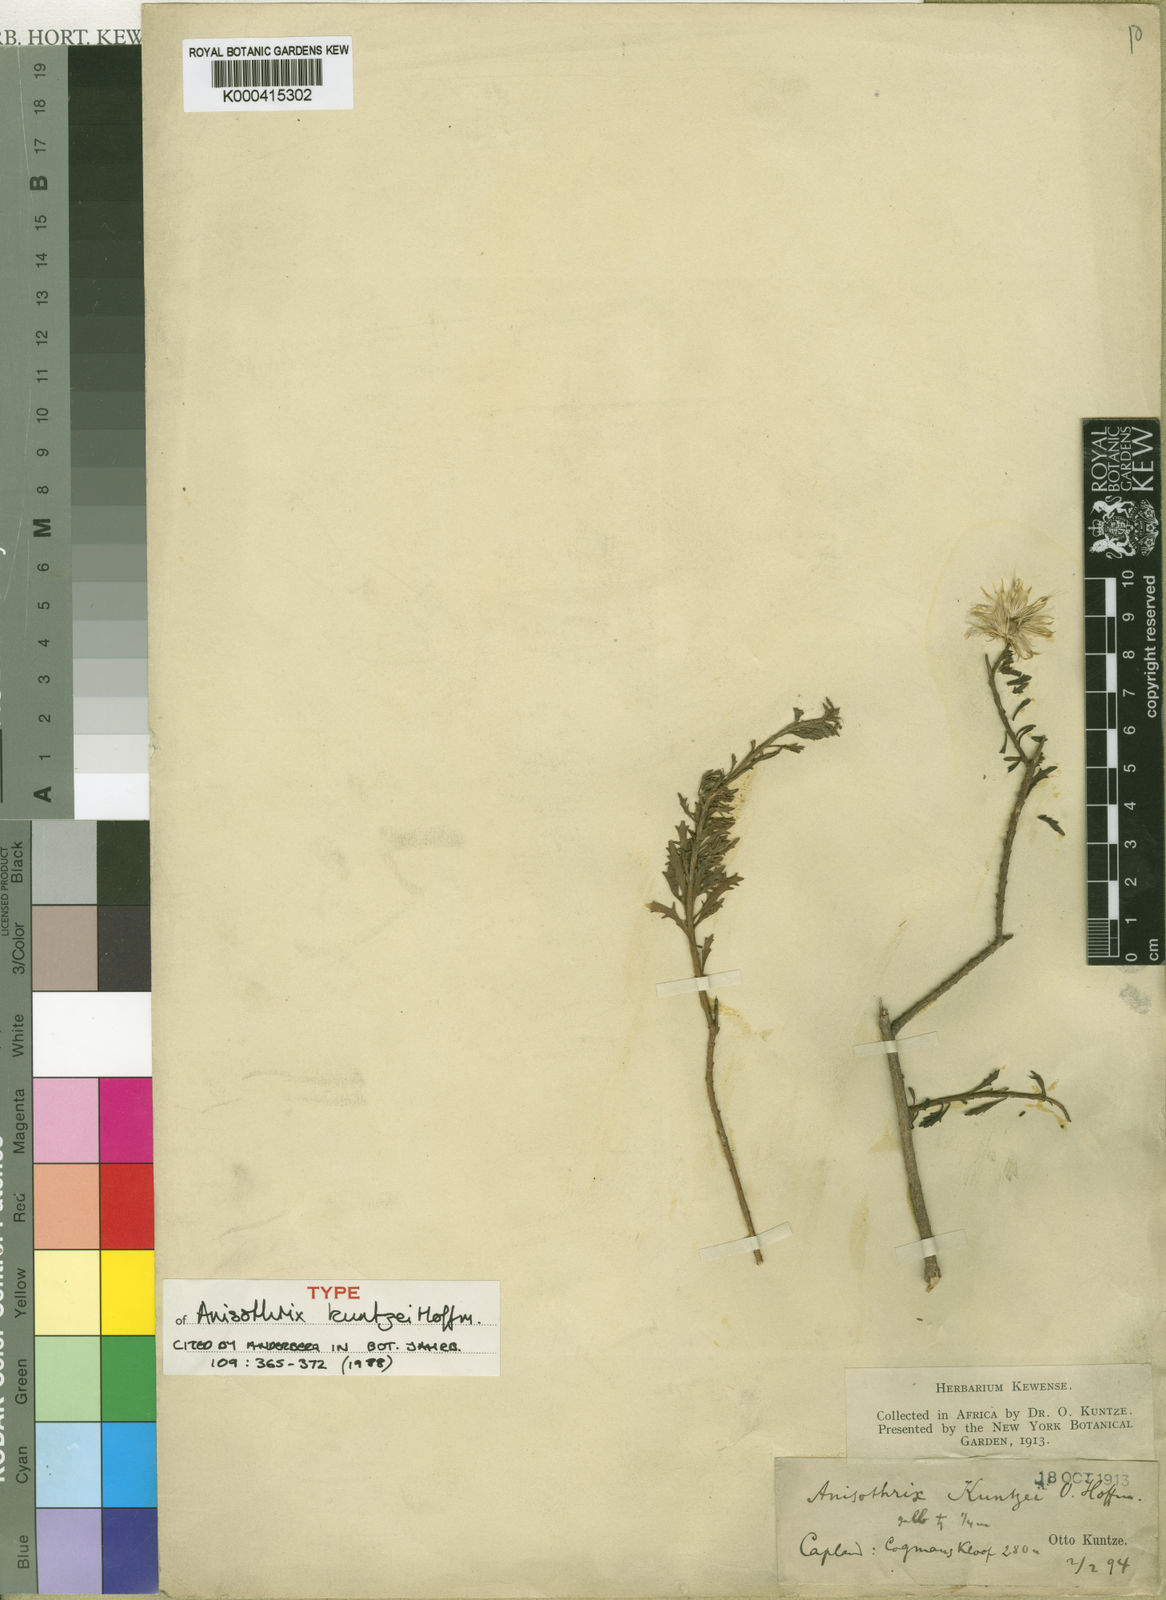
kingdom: Plantae
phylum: Tracheophyta
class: Magnoliopsida
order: Asterales
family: Asteraceae
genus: Pentatrichia
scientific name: Pentatrichia kuntzei
